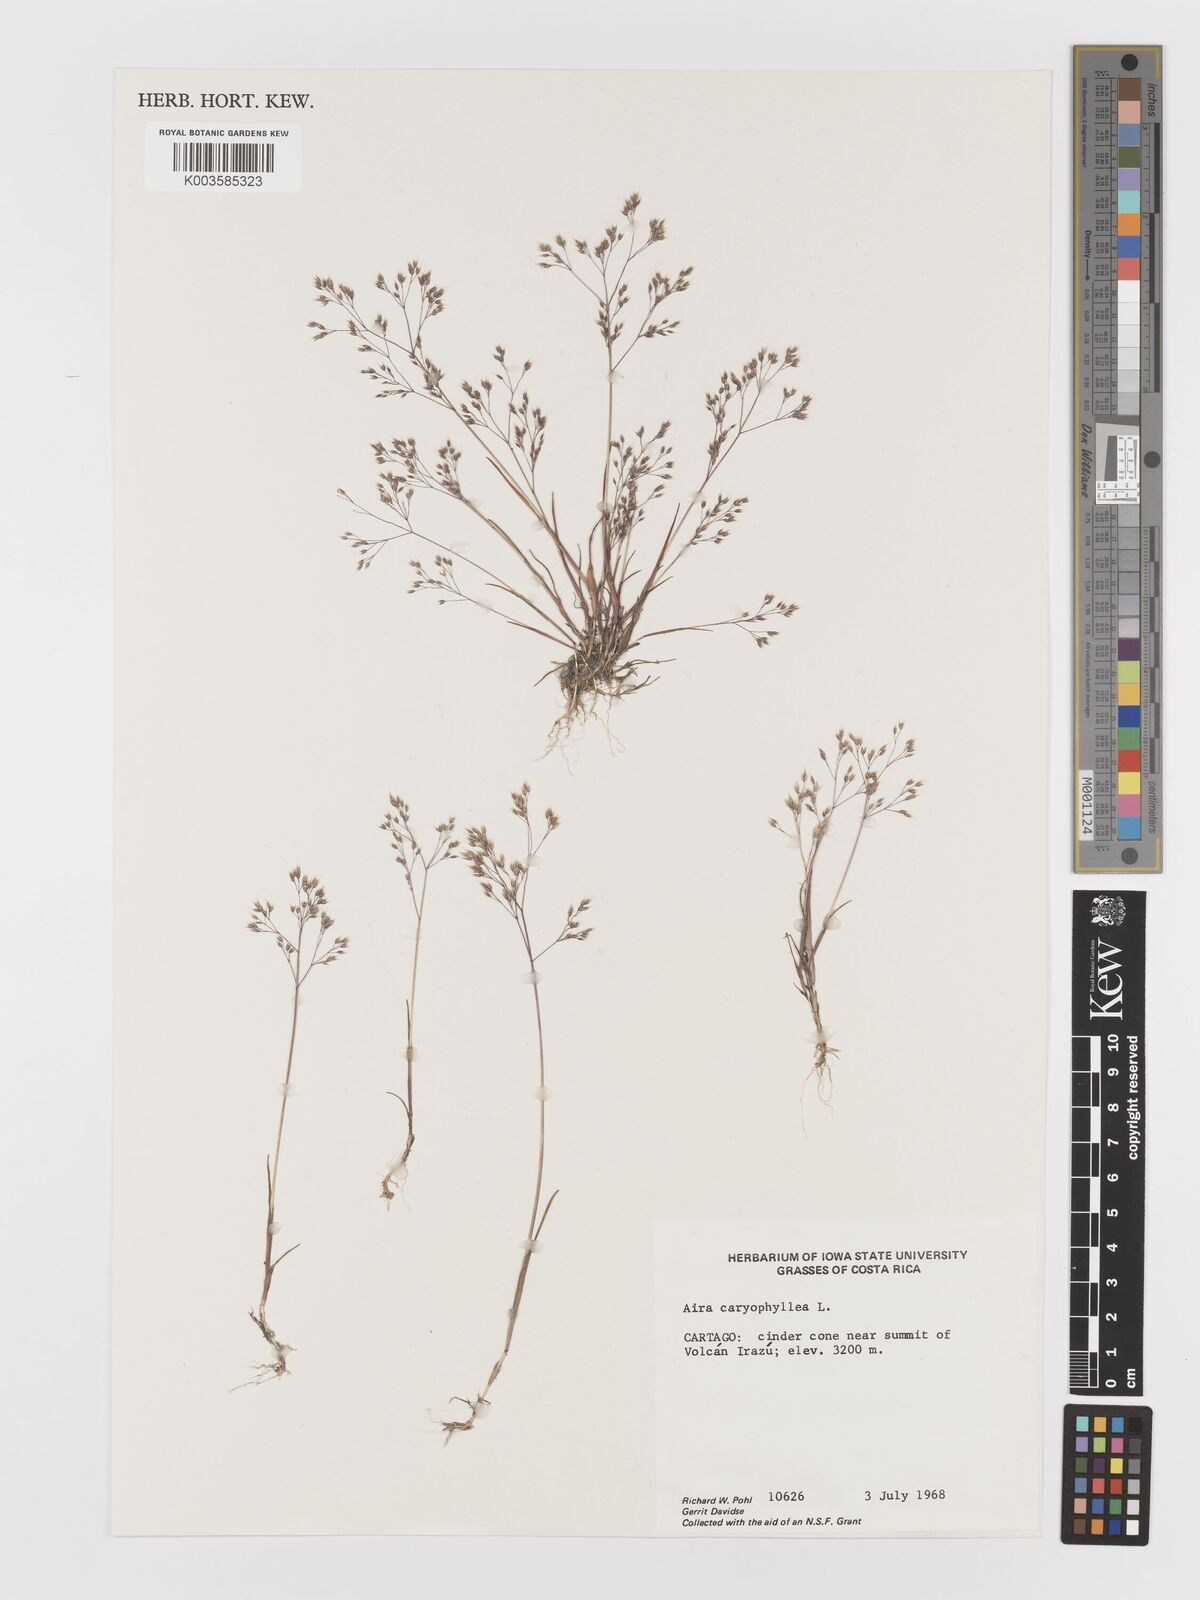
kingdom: Plantae
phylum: Tracheophyta
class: Liliopsida
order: Poales
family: Poaceae
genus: Aira
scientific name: Aira caryophyllea
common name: Silver hairgrass
